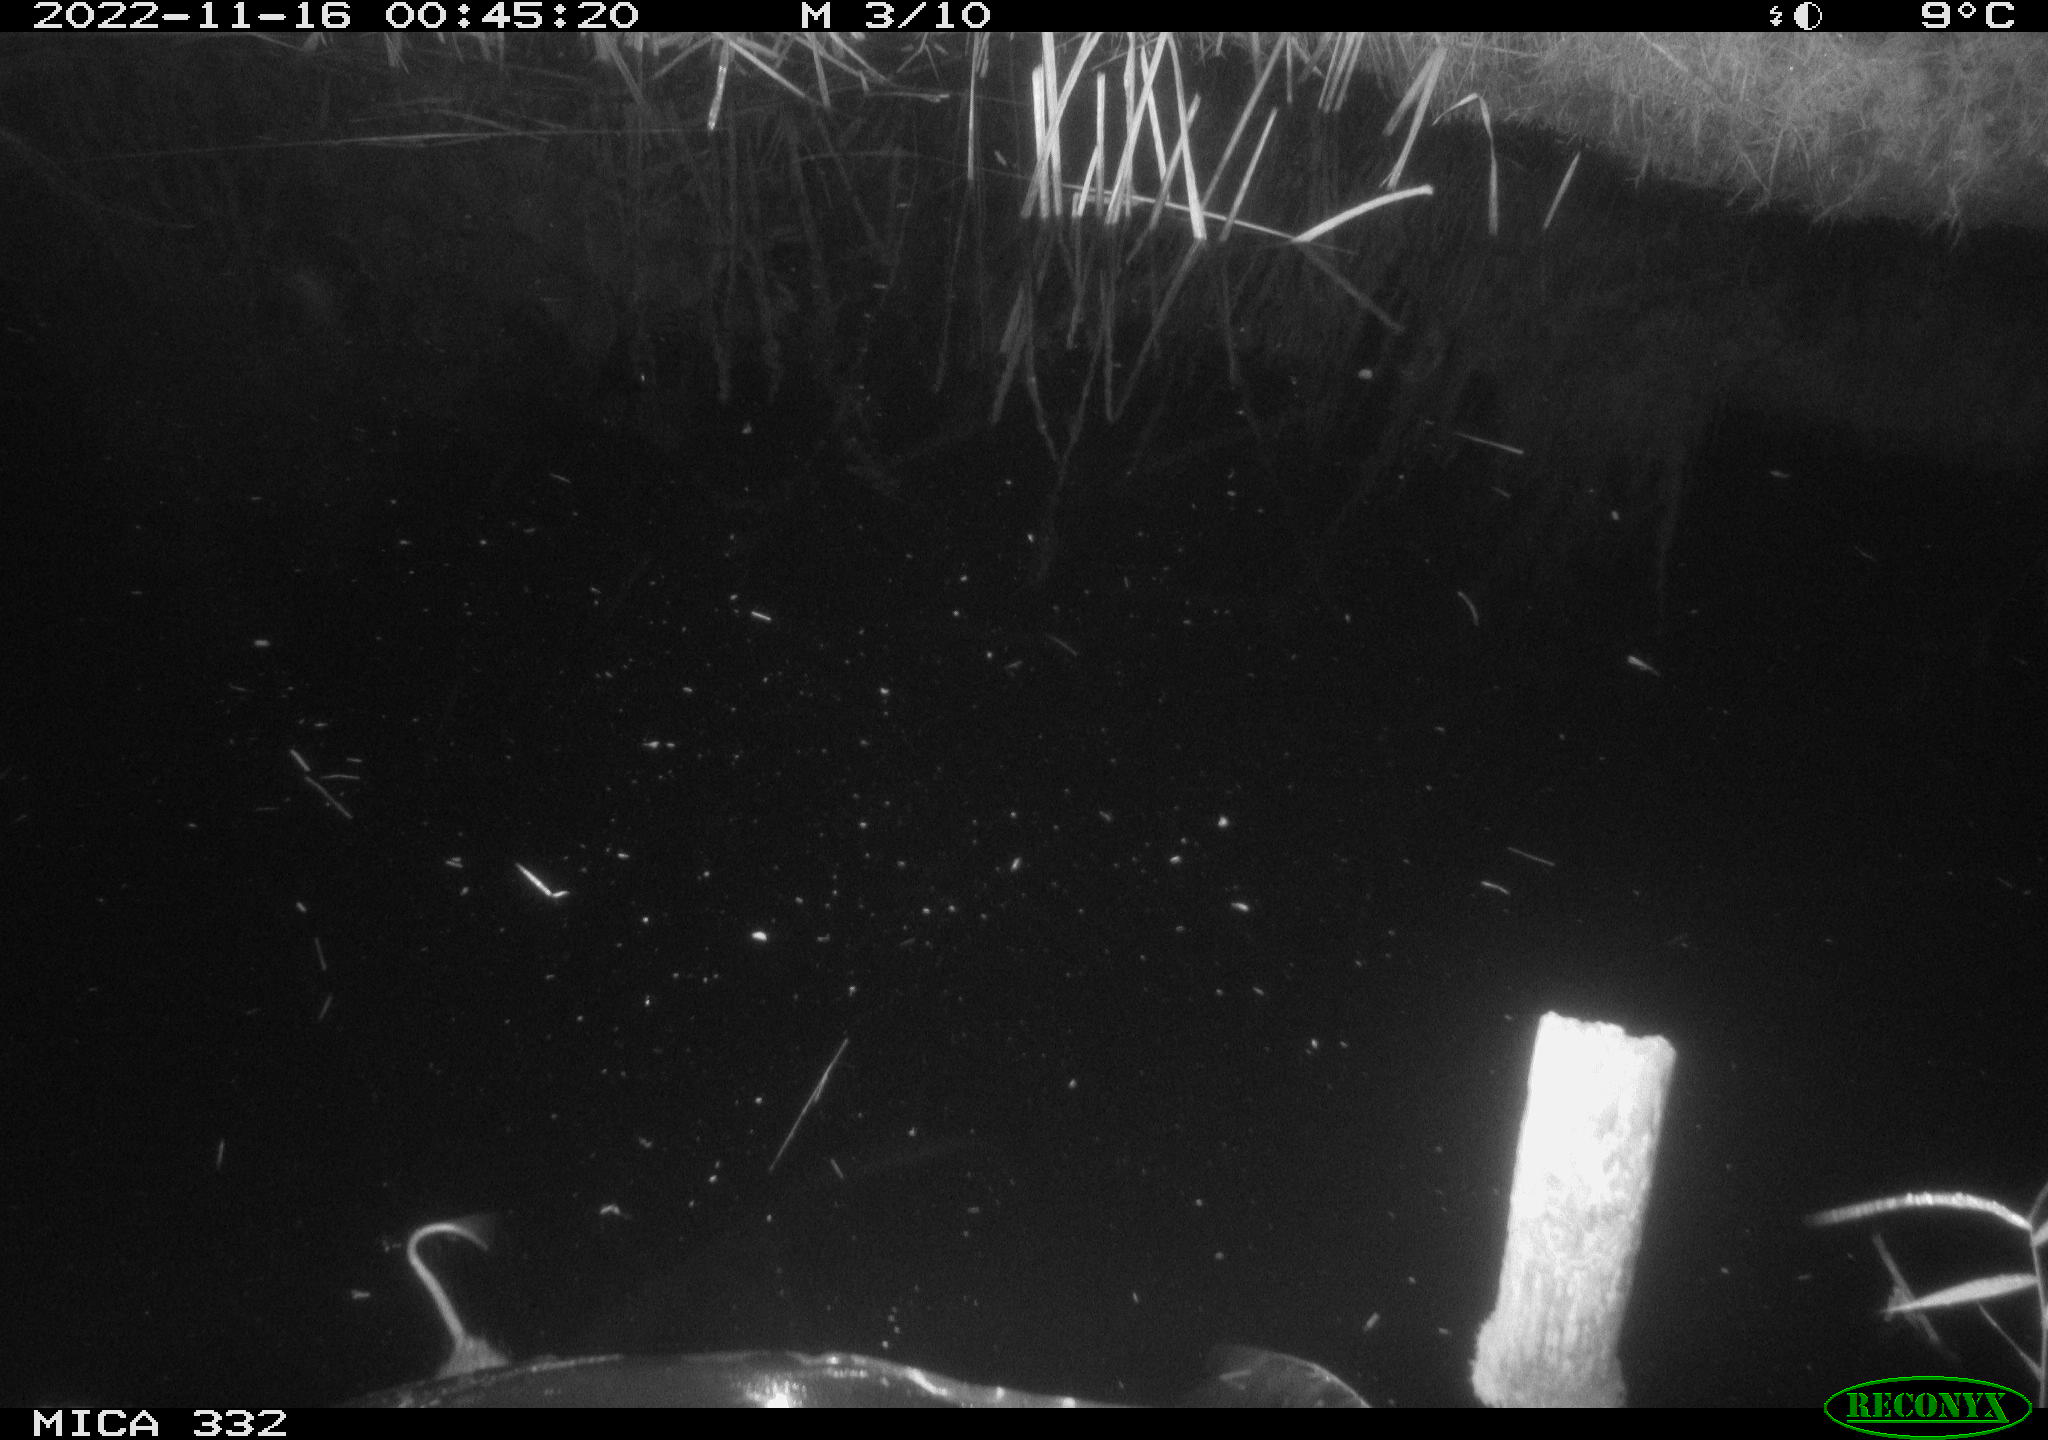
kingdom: Animalia
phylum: Chordata
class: Mammalia
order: Rodentia
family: Muridae
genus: Rattus
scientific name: Rattus norvegicus
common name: Brown rat
